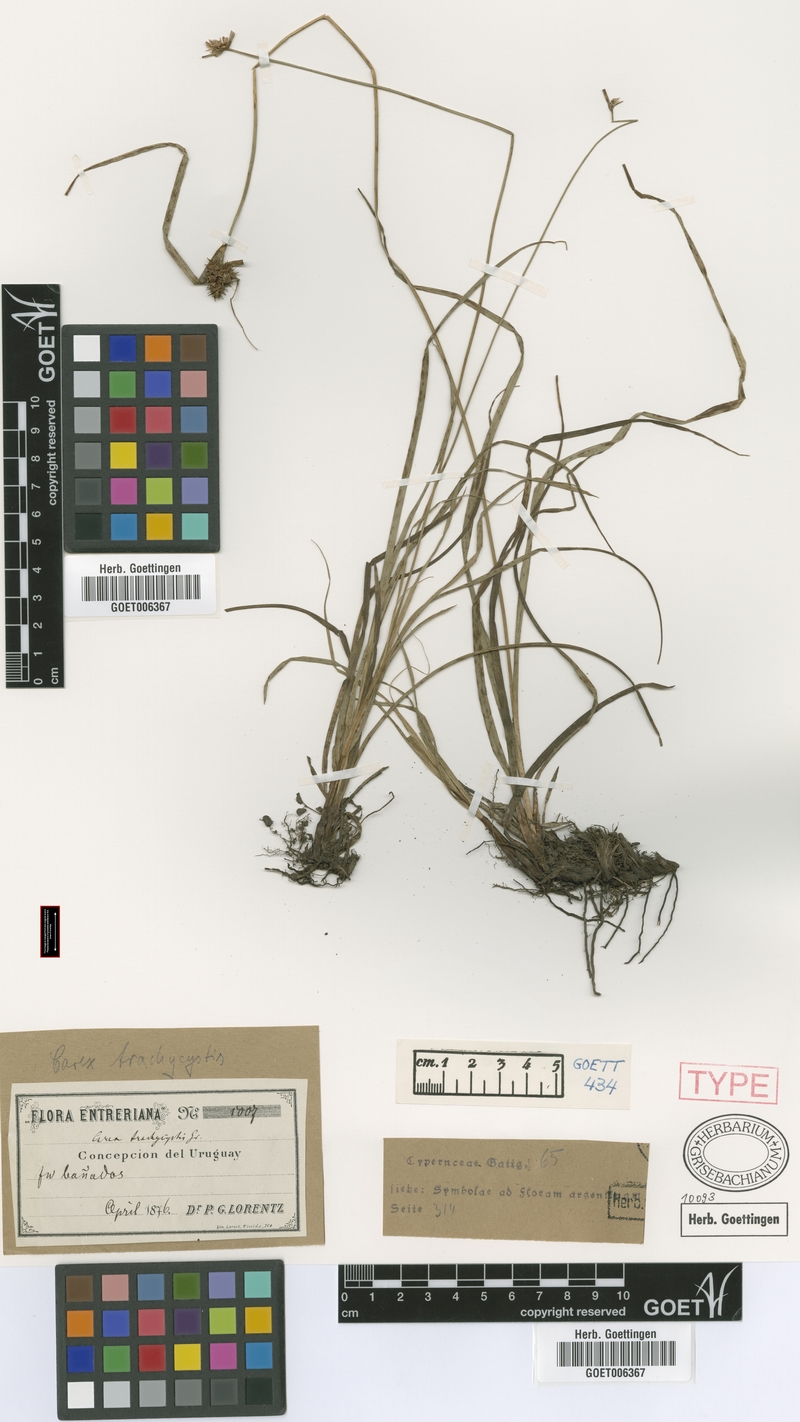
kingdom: Plantae
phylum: Tracheophyta
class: Liliopsida
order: Poales
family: Cyperaceae
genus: Carex
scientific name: Carex bonariensis
